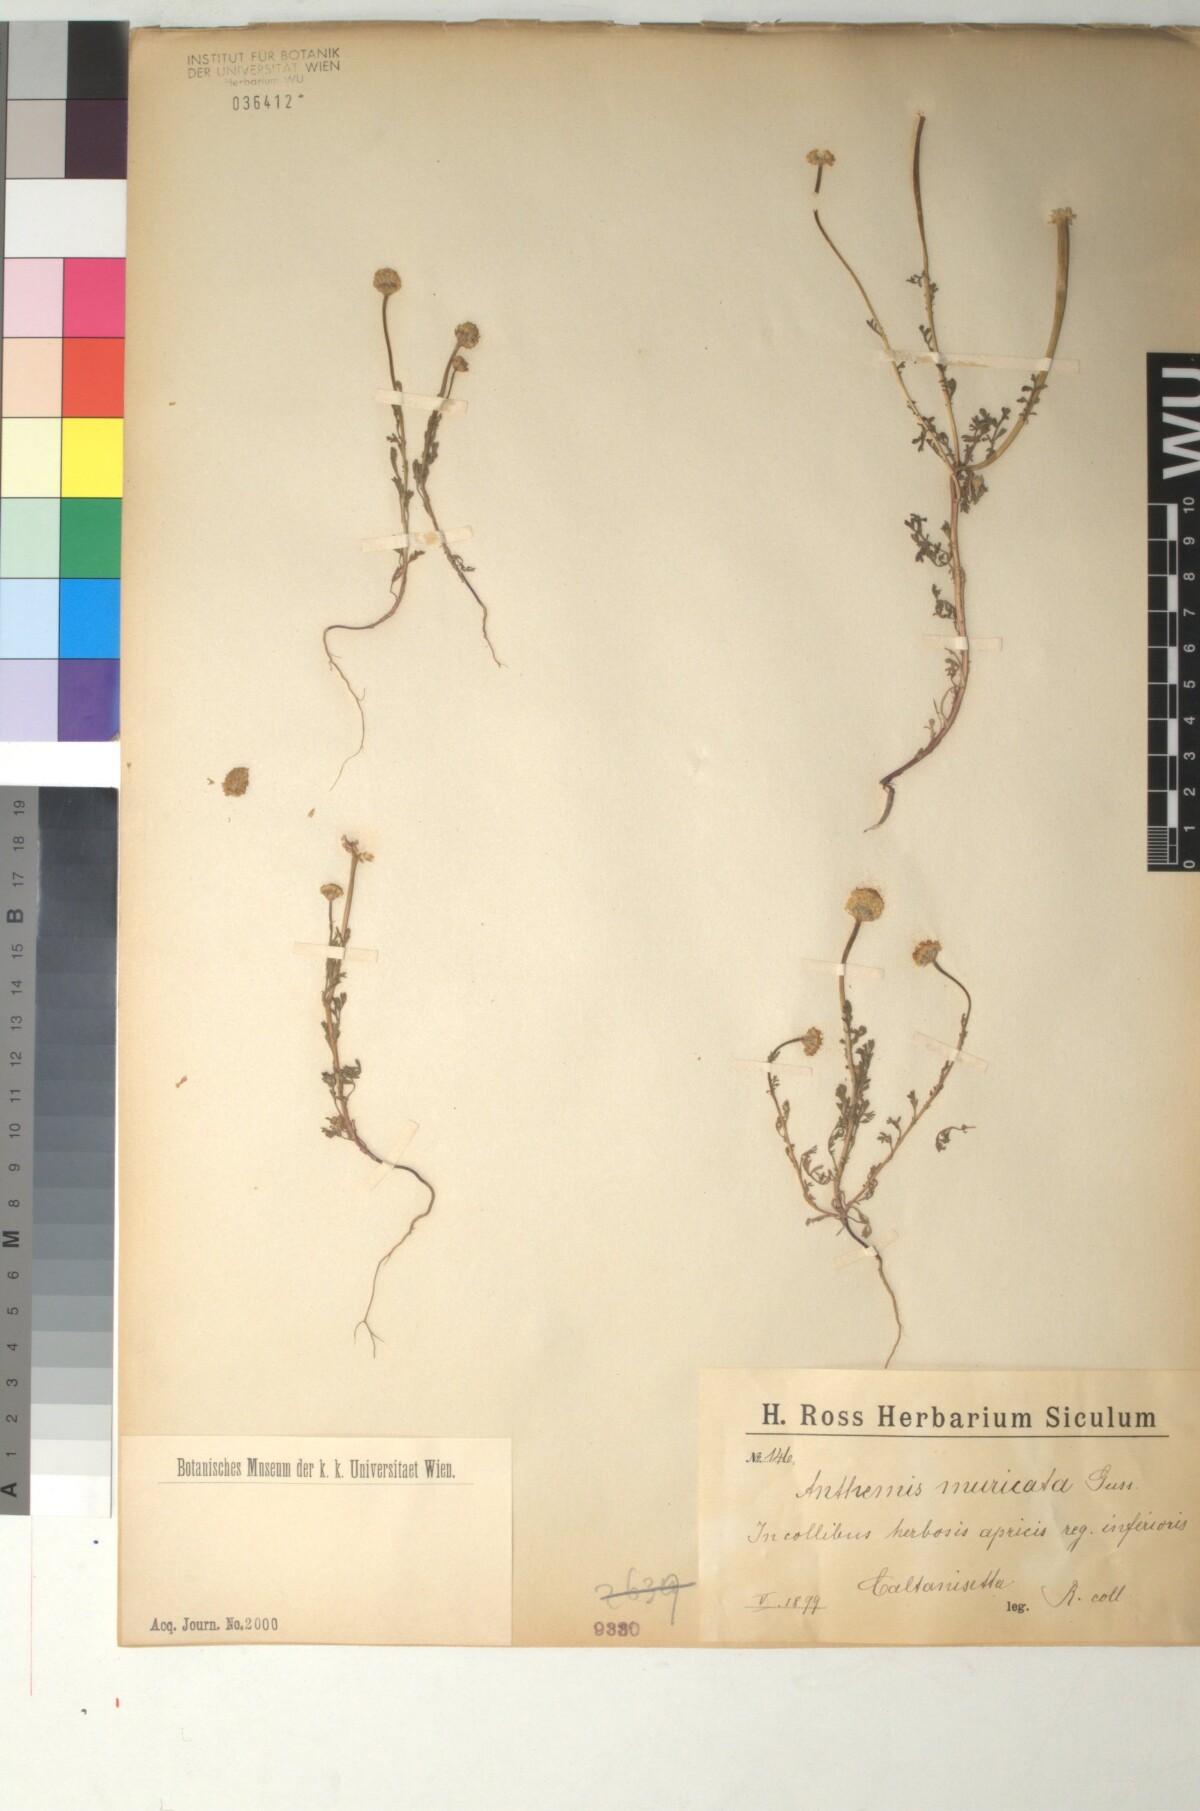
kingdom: Plantae
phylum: Tracheophyta
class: Magnoliopsida
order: Asterales
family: Asteraceae
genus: Anthemis
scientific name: Anthemis muricata
